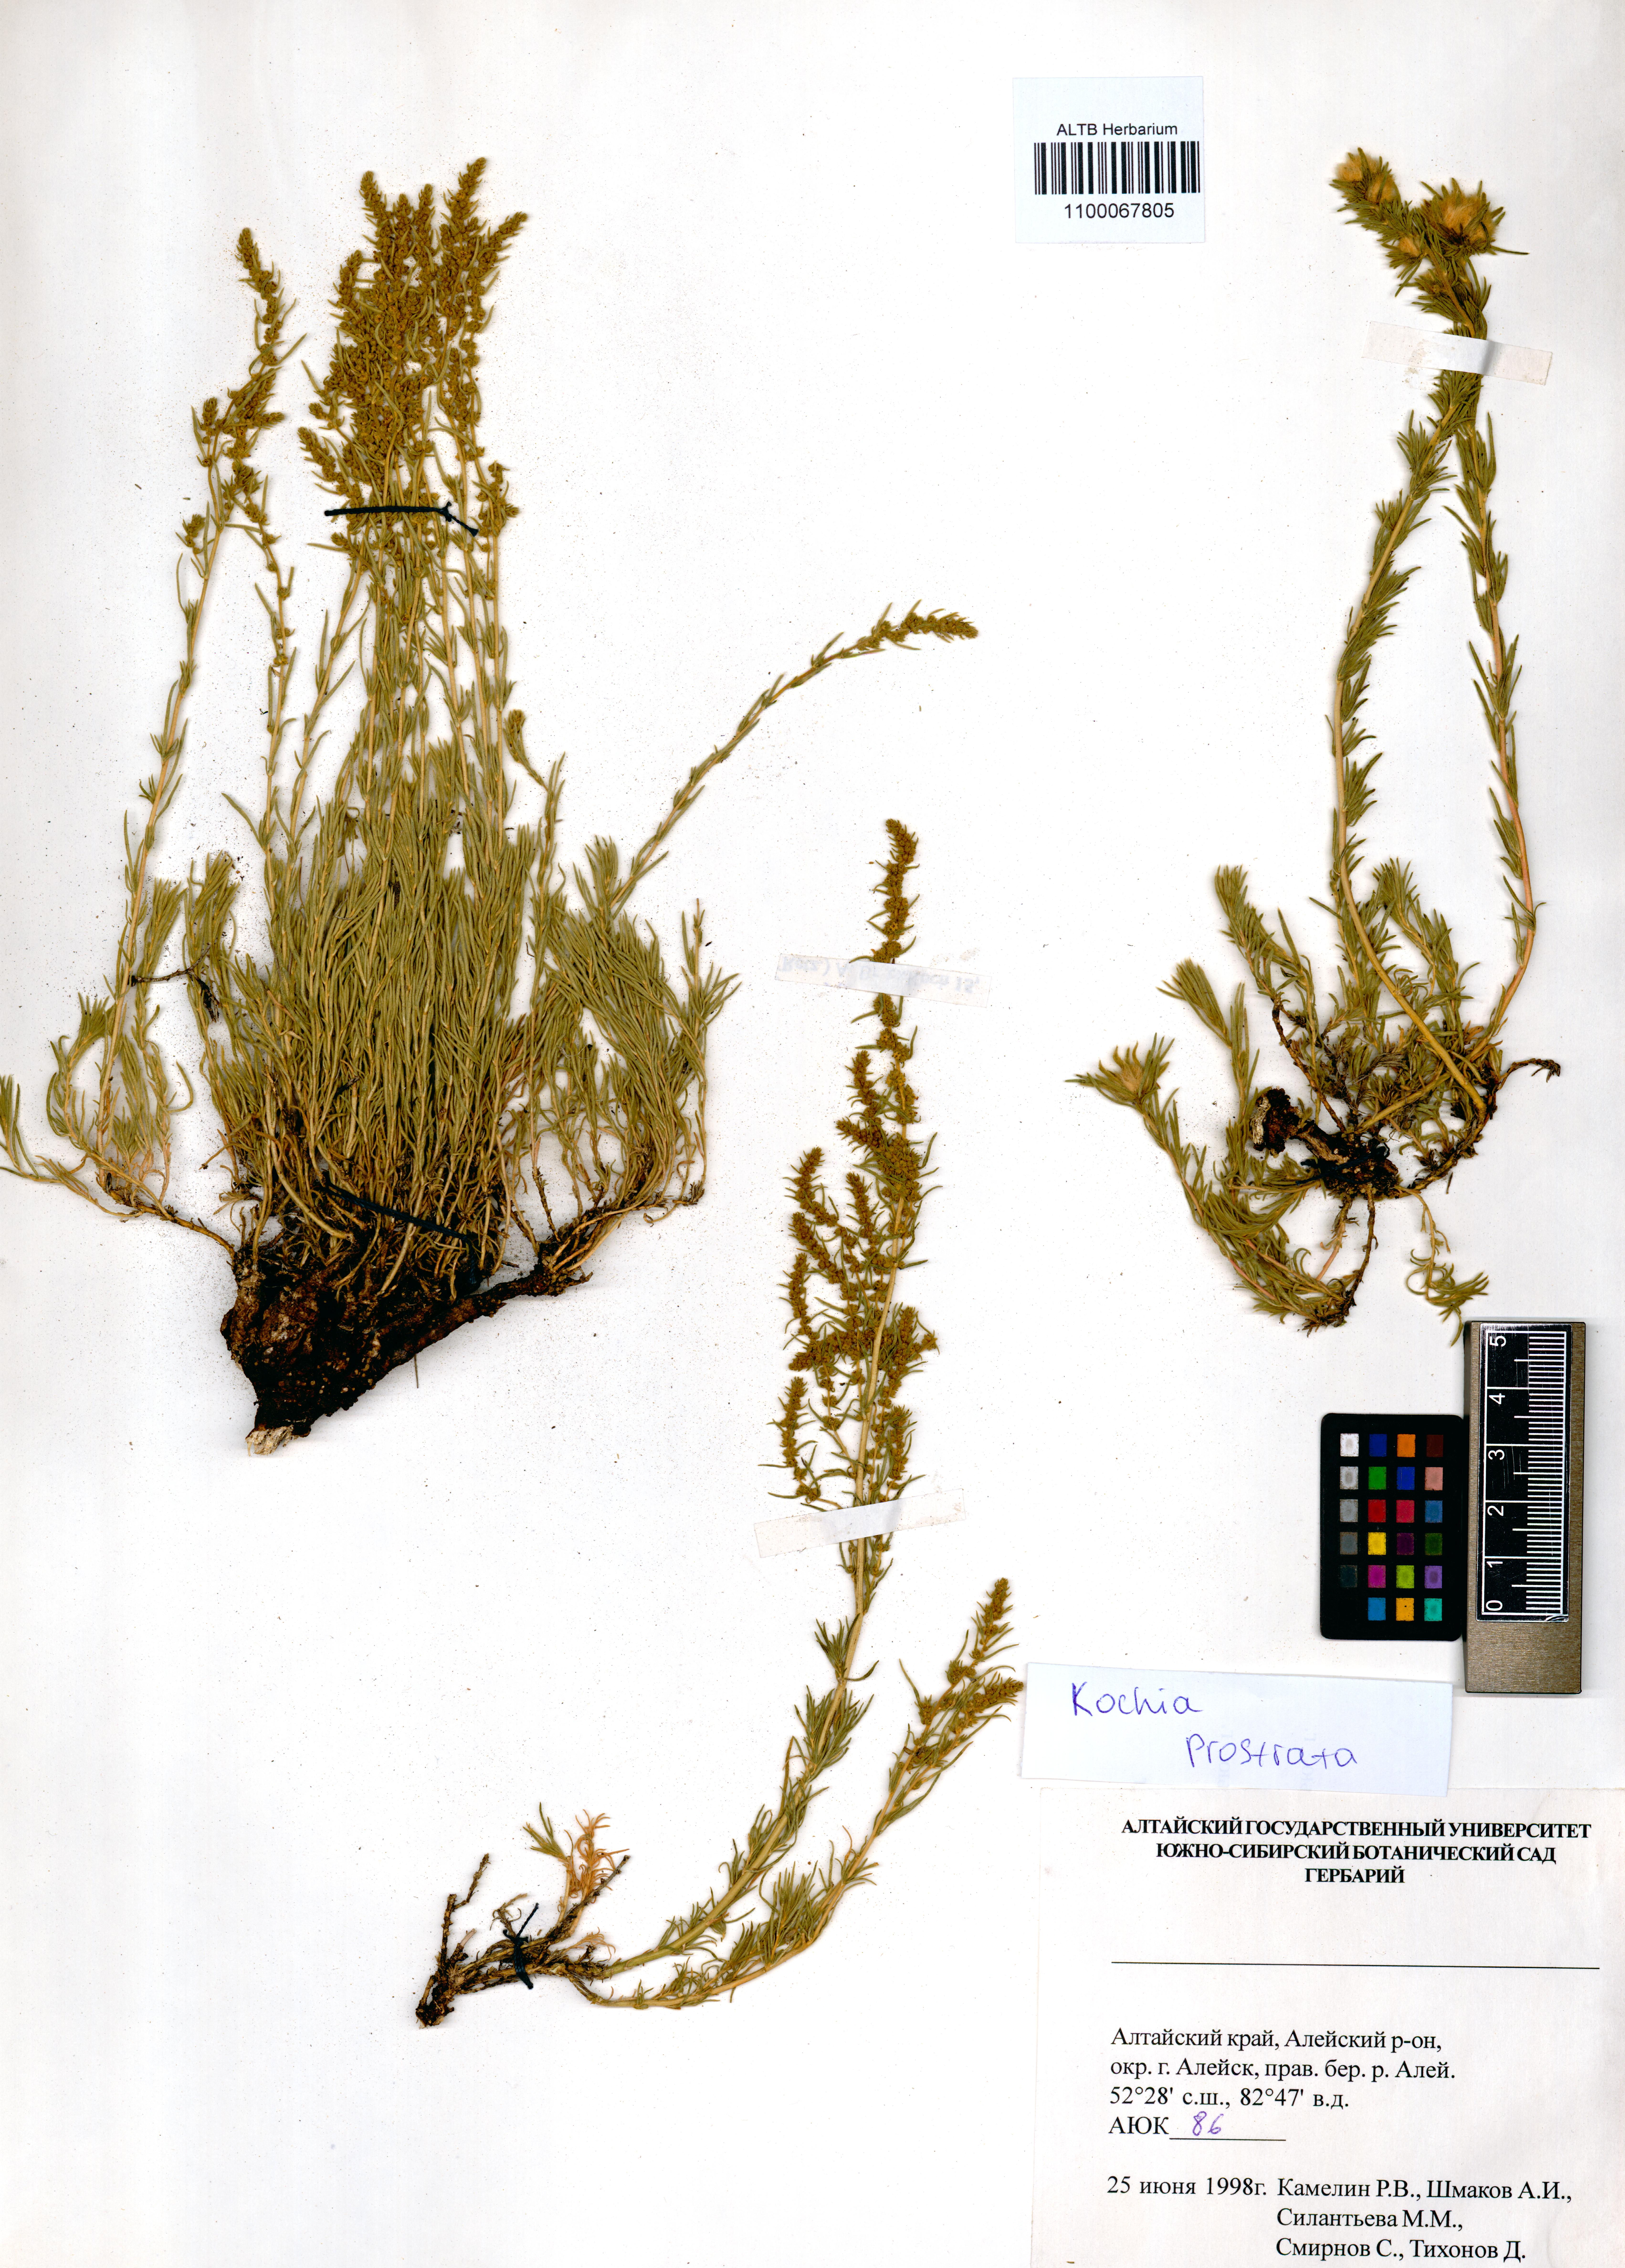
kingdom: Plantae
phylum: Tracheophyta
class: Magnoliopsida
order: Caryophyllales
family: Amaranthaceae
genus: Bassia
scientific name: Bassia prostrata
